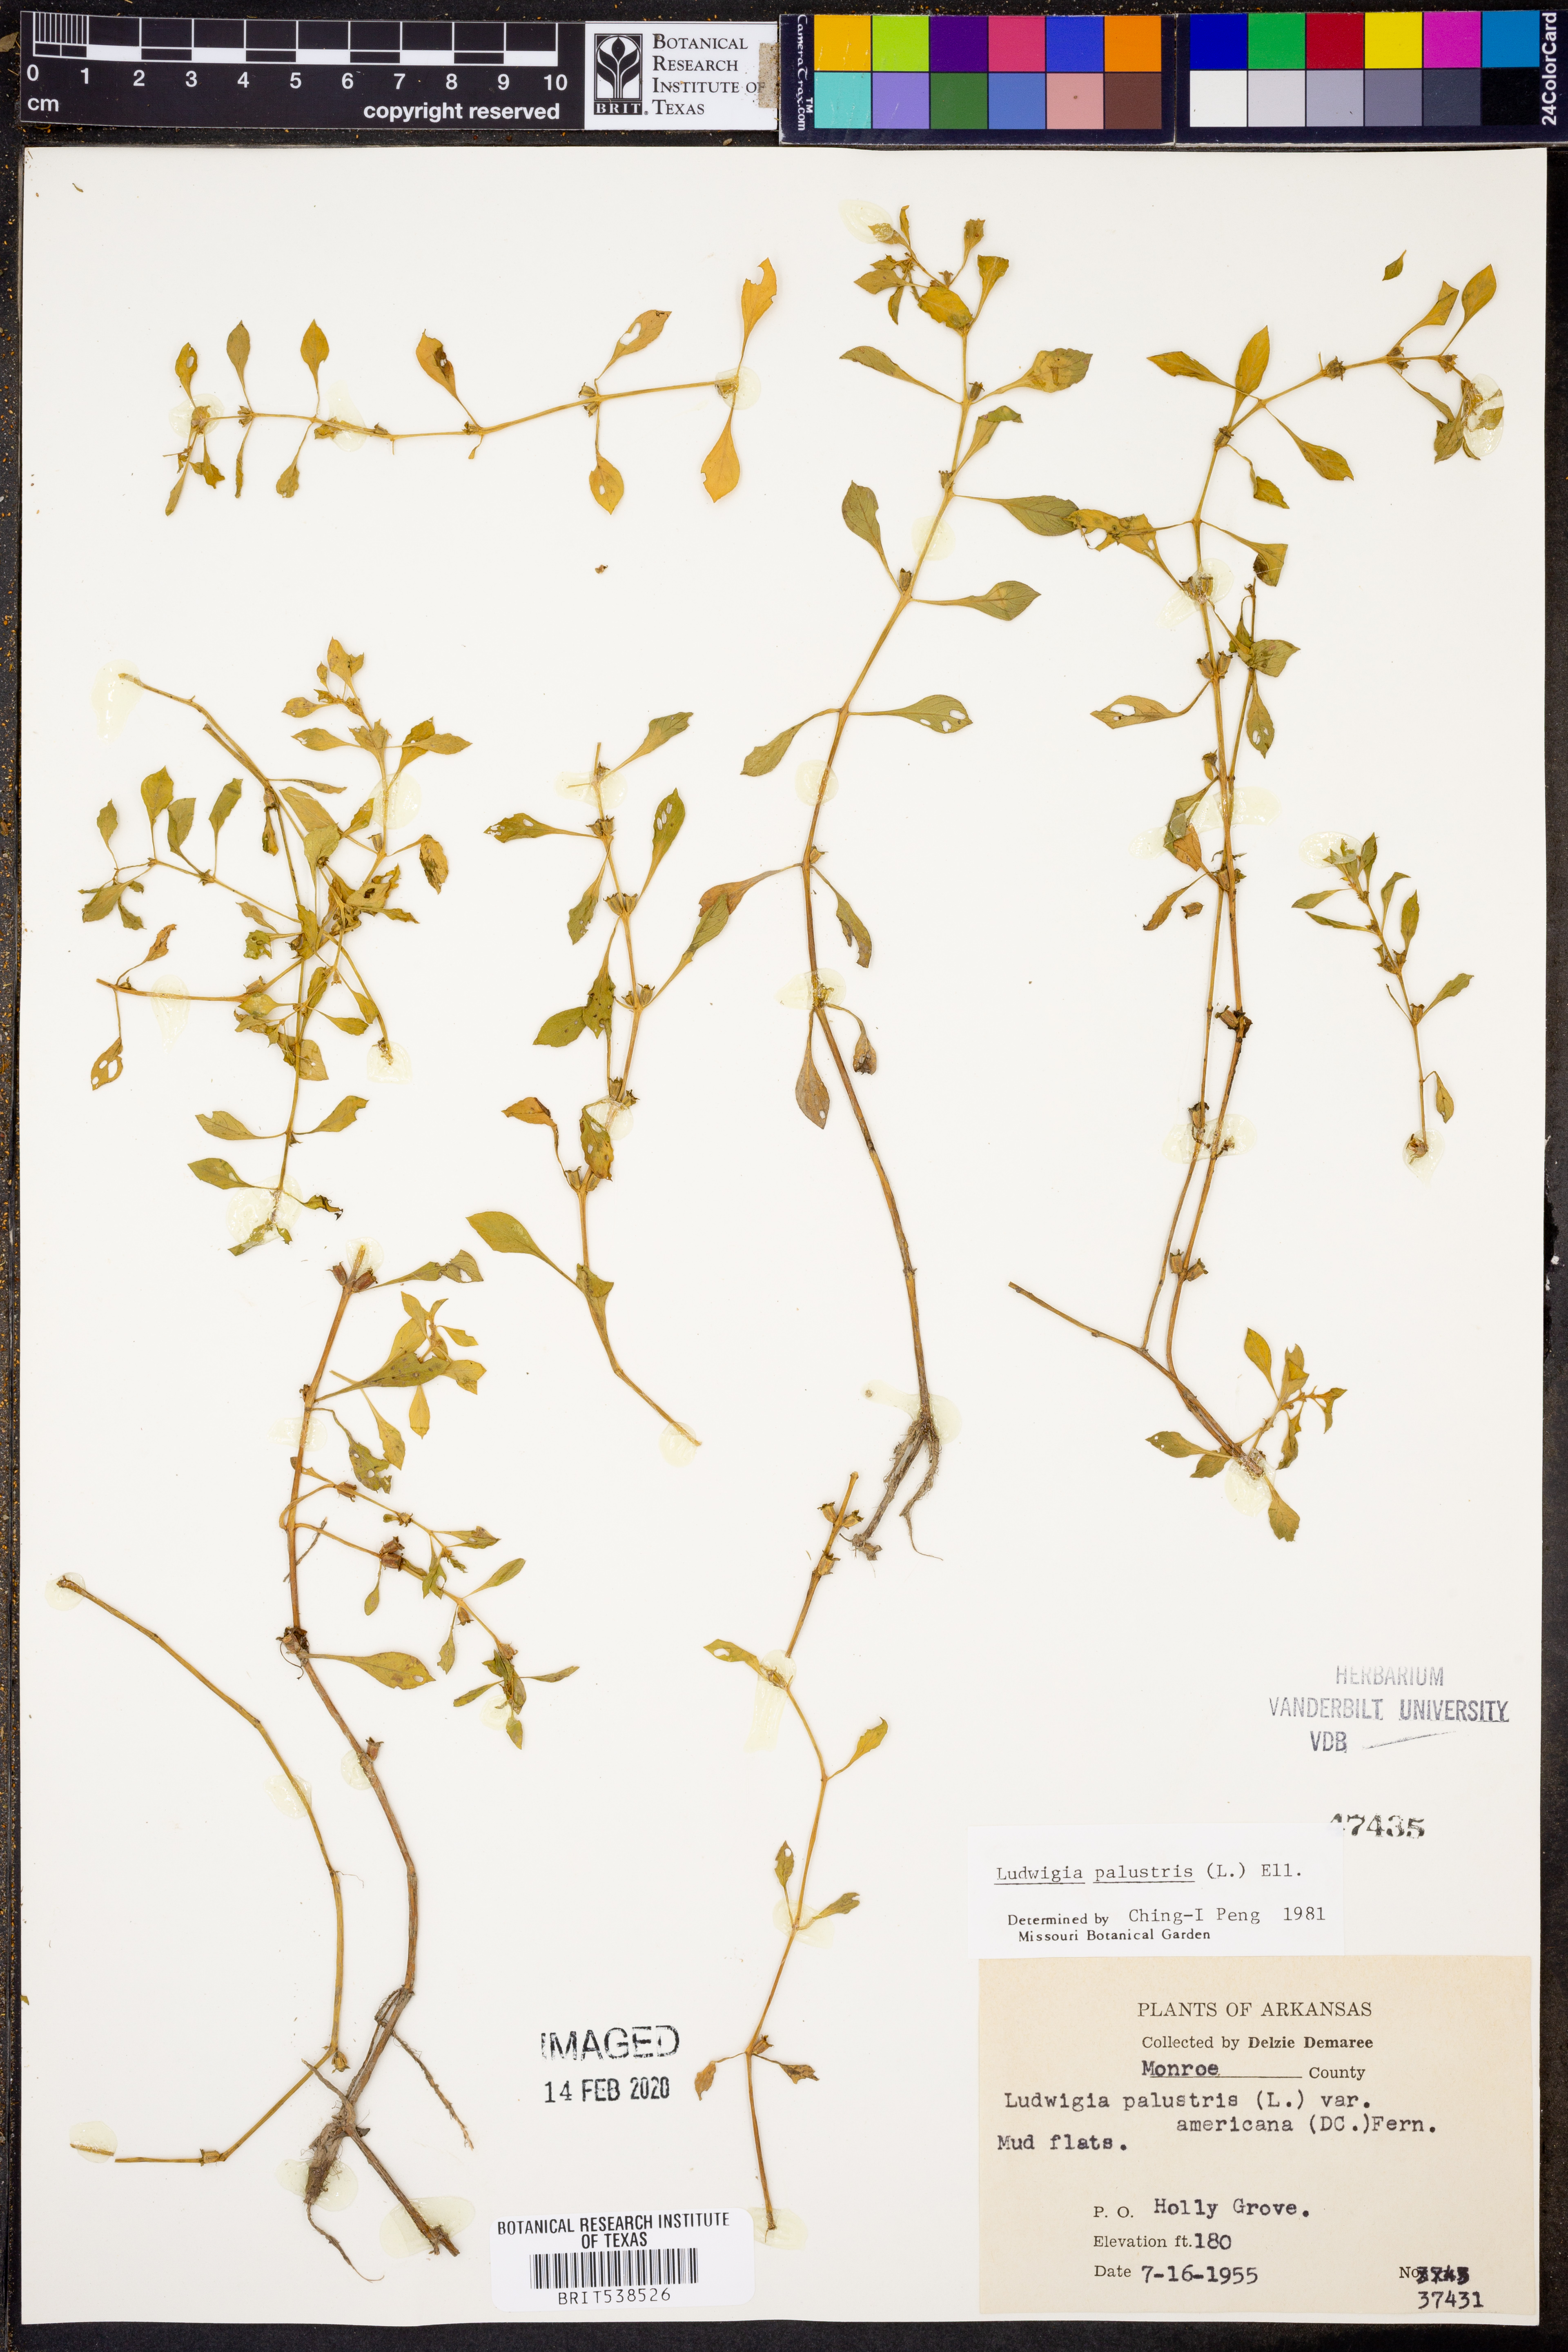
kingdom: Plantae
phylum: Tracheophyta
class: Magnoliopsida
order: Myrtales
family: Onagraceae
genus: Ludwigia
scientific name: Ludwigia palustris
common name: Hampshire-purslane
